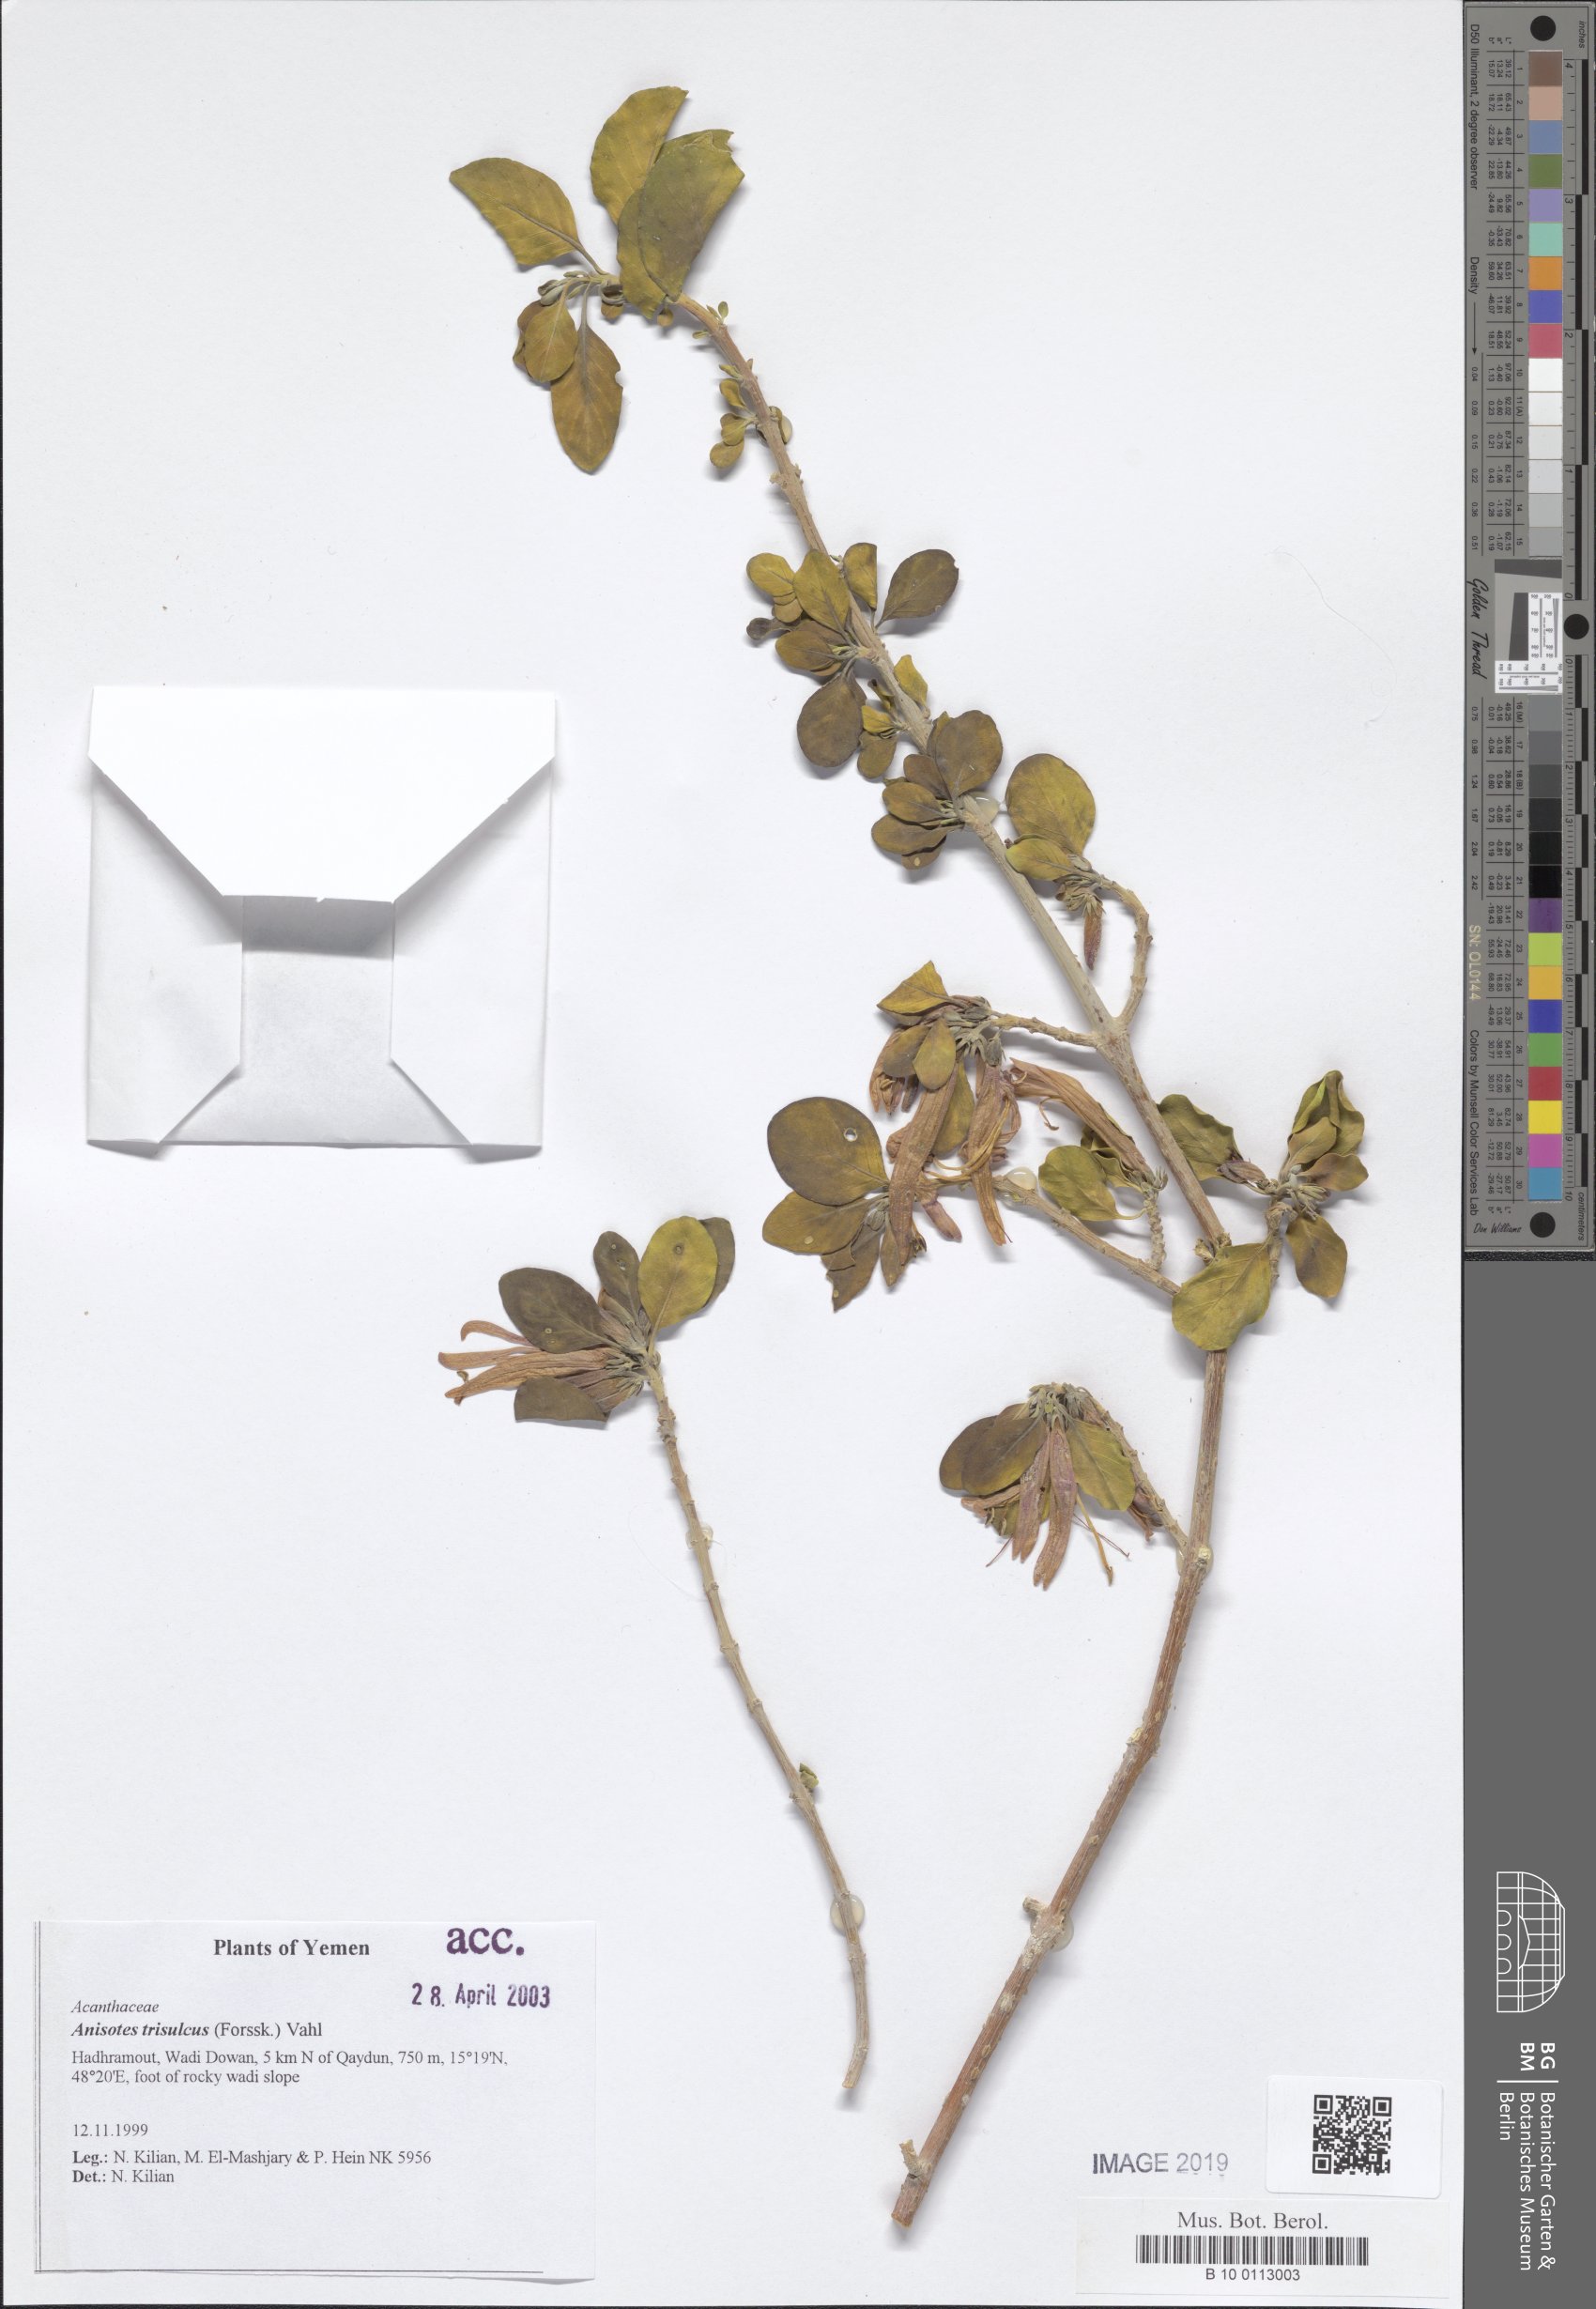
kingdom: Plantae
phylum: Tracheophyta
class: Magnoliopsida
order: Lamiales
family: Acanthaceae
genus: Anisotes
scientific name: Anisotes trisulcus
